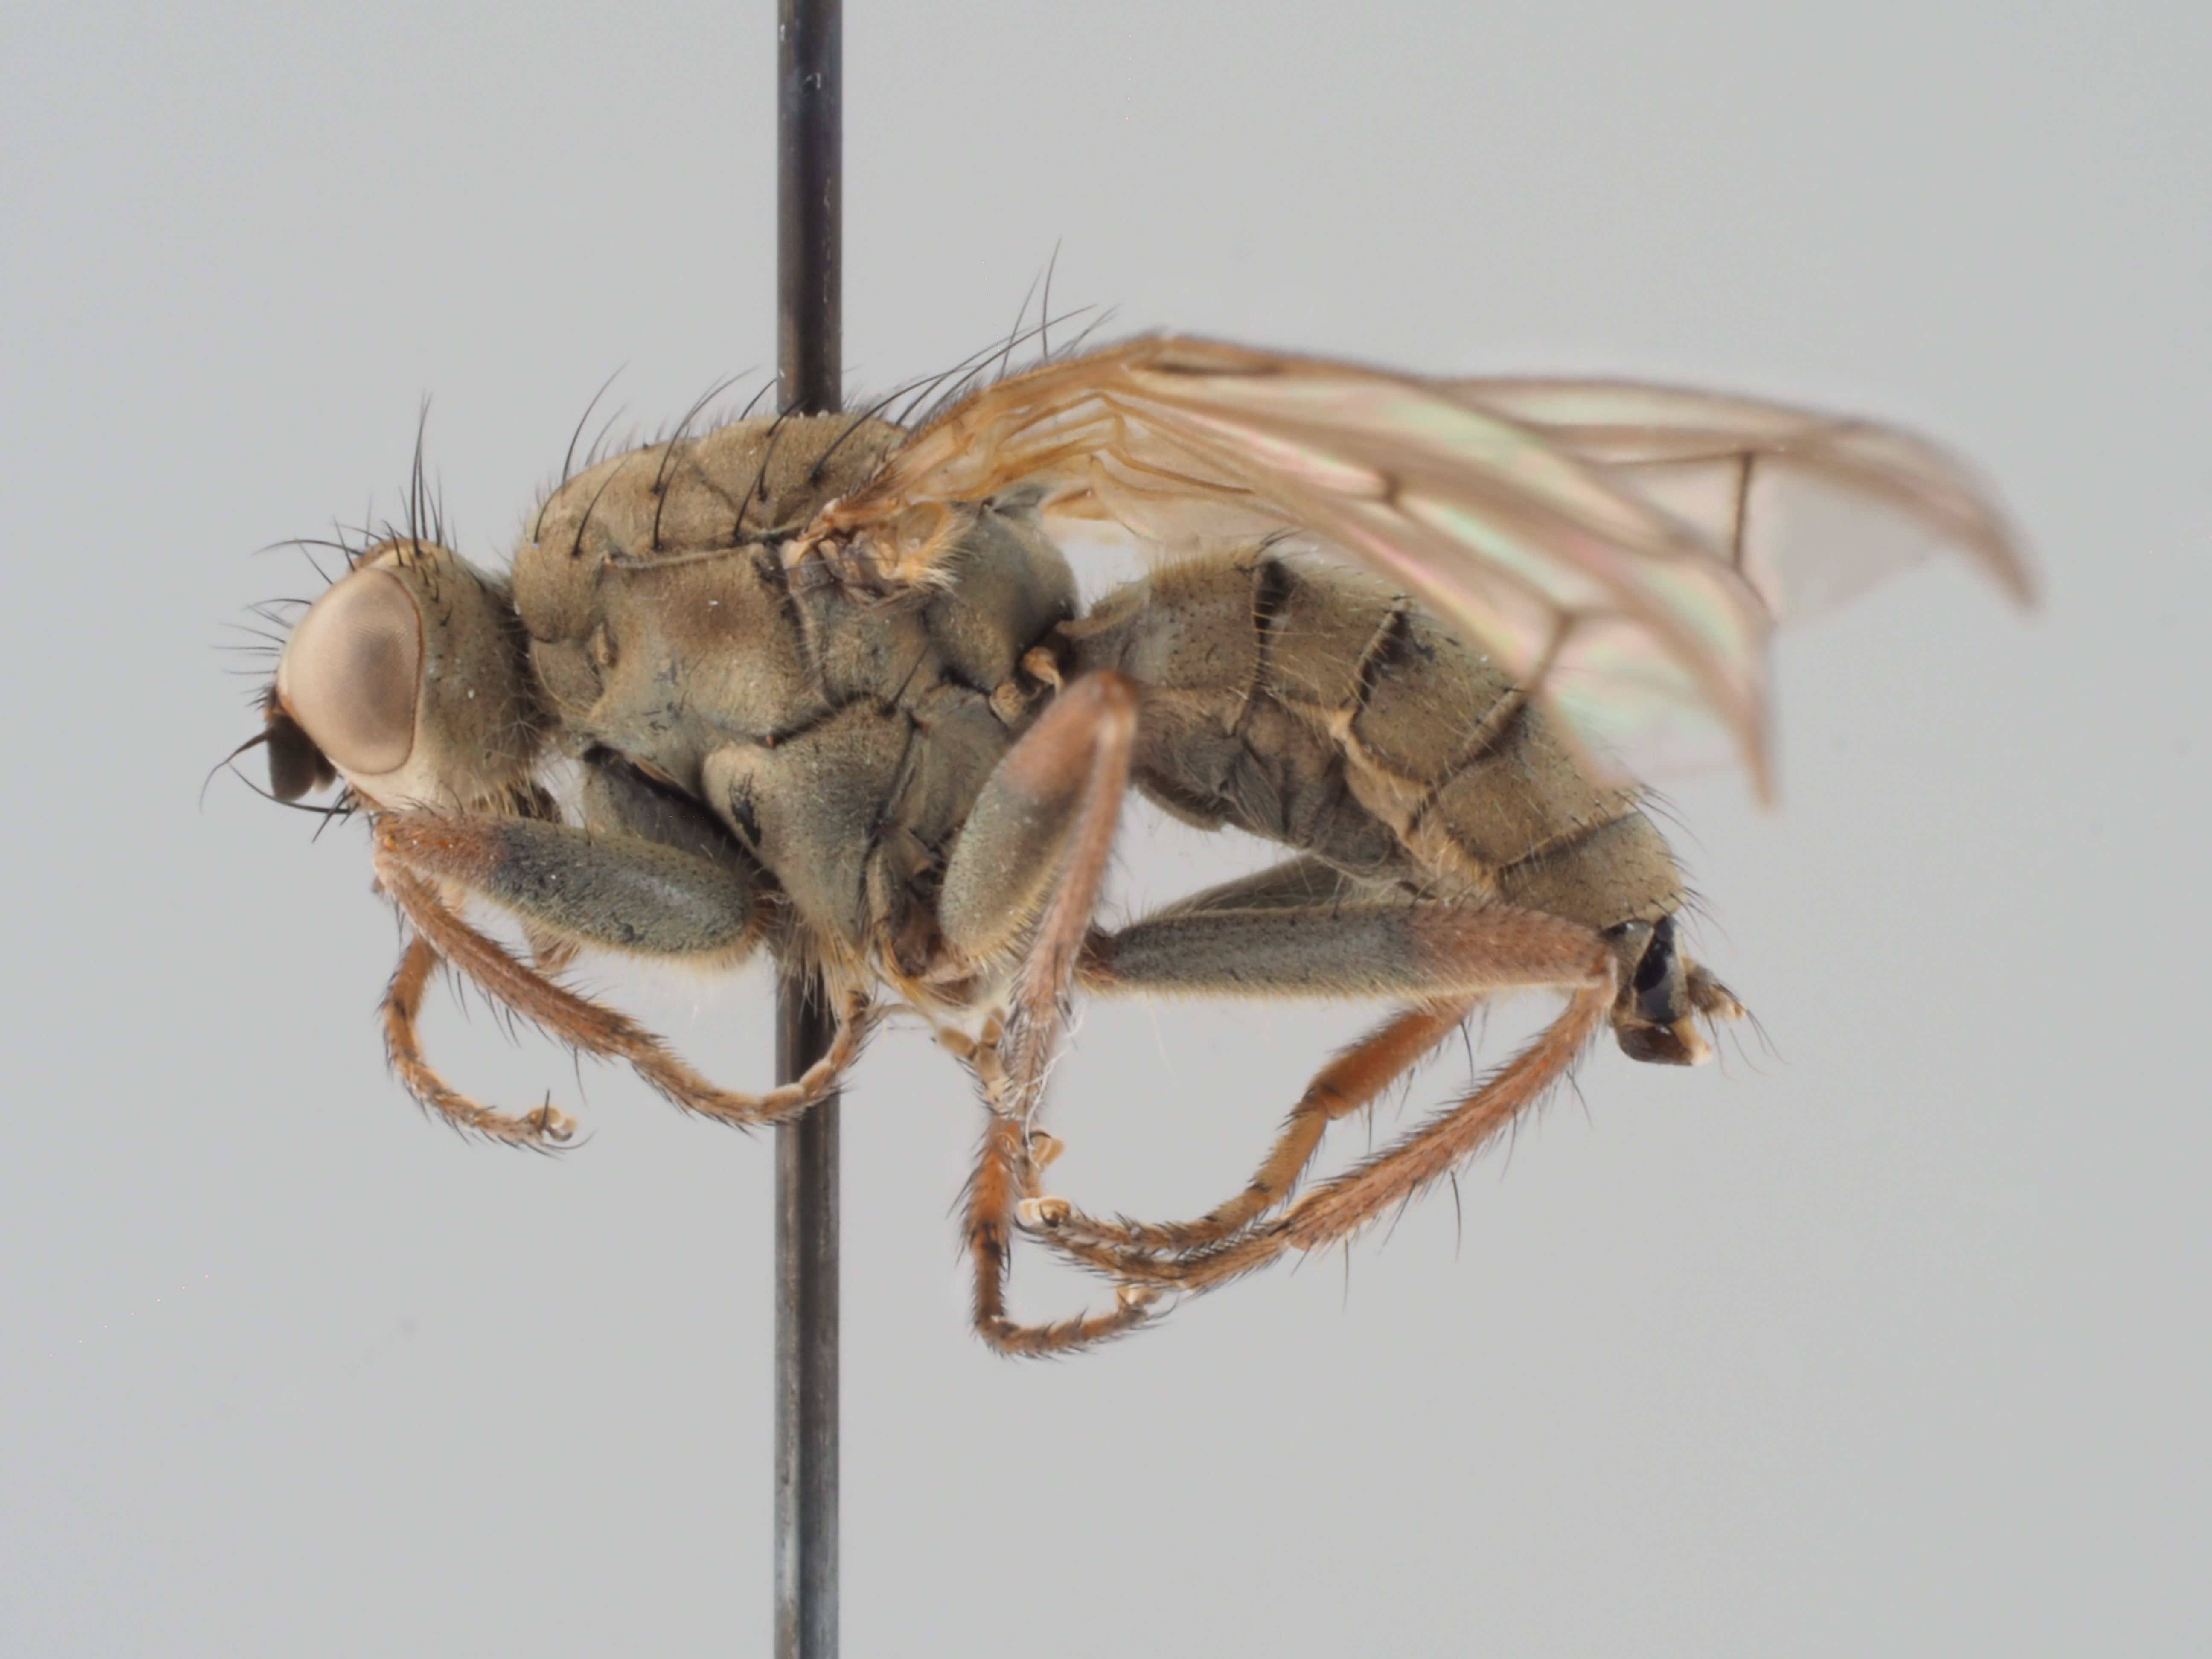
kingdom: Animalia
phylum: Arthropoda
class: Insecta
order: Diptera
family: Scathophagidae
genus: Conisternum
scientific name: Conisternum tinctinerve
